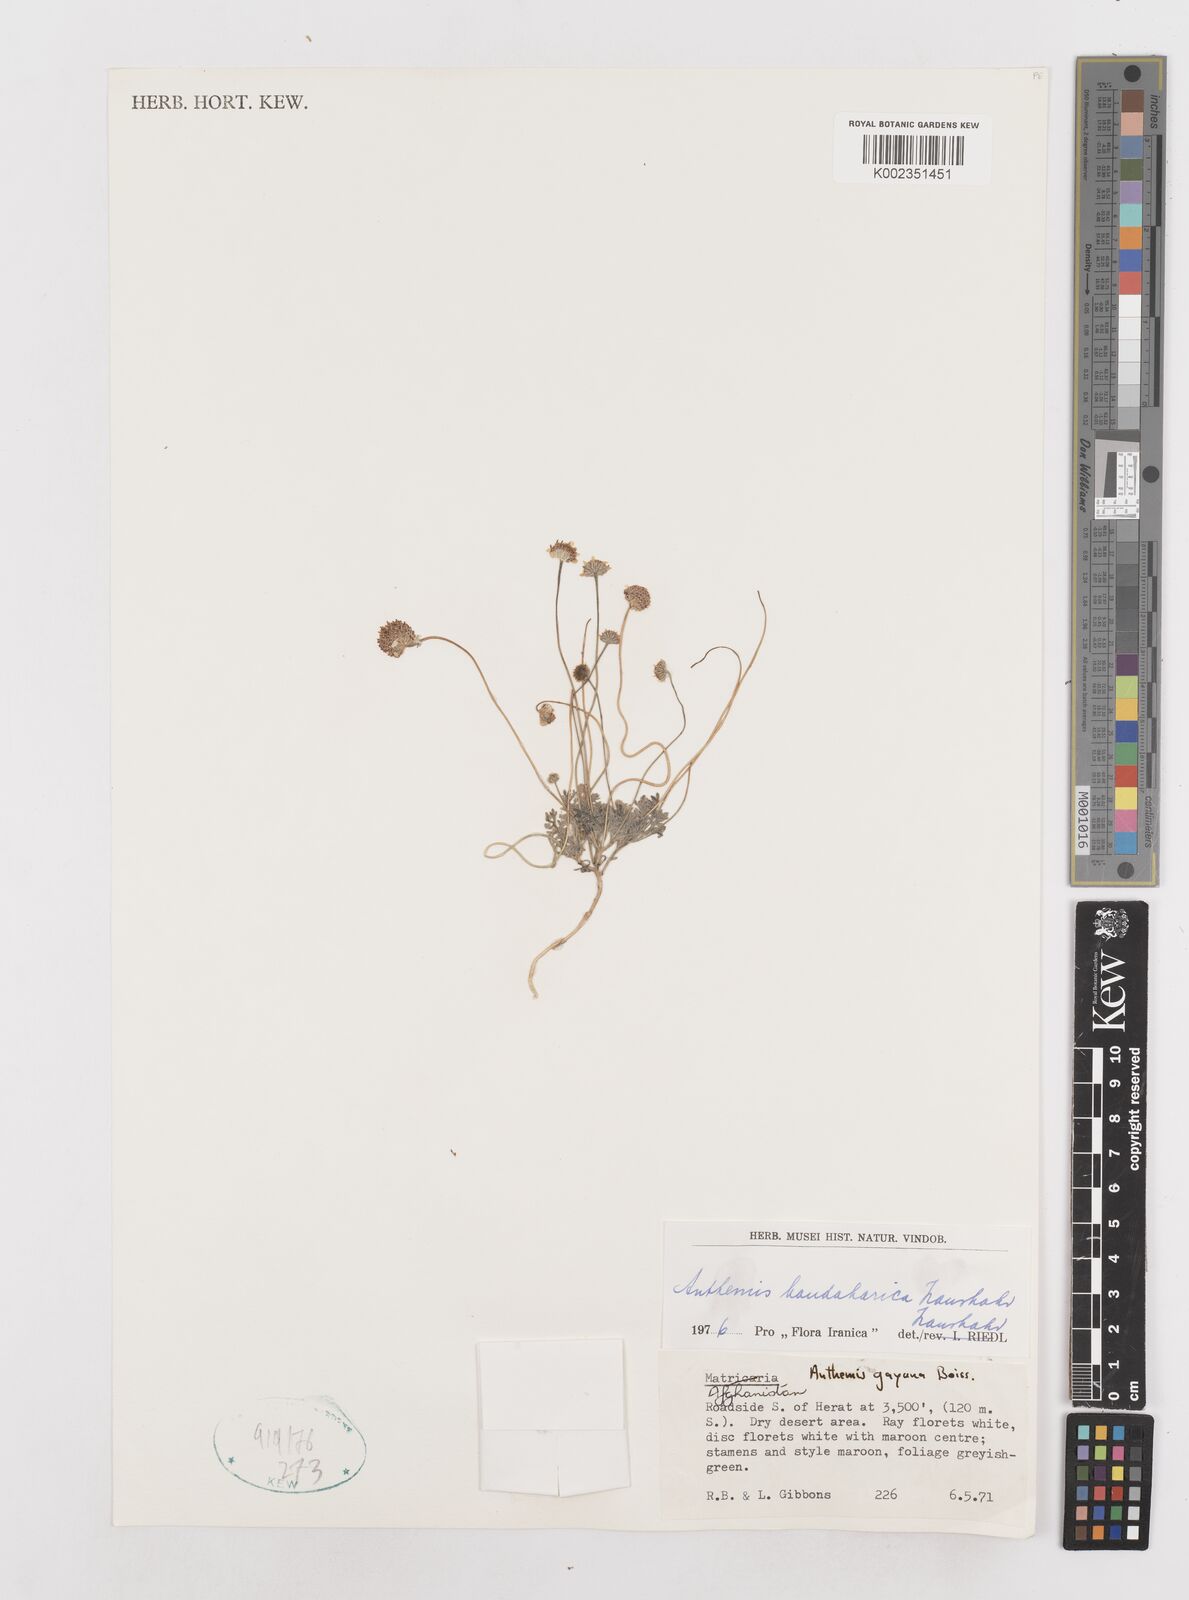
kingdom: Plantae
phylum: Tracheophyta
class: Magnoliopsida
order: Asterales
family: Asteraceae
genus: Anthemis
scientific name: Anthemis gayana
